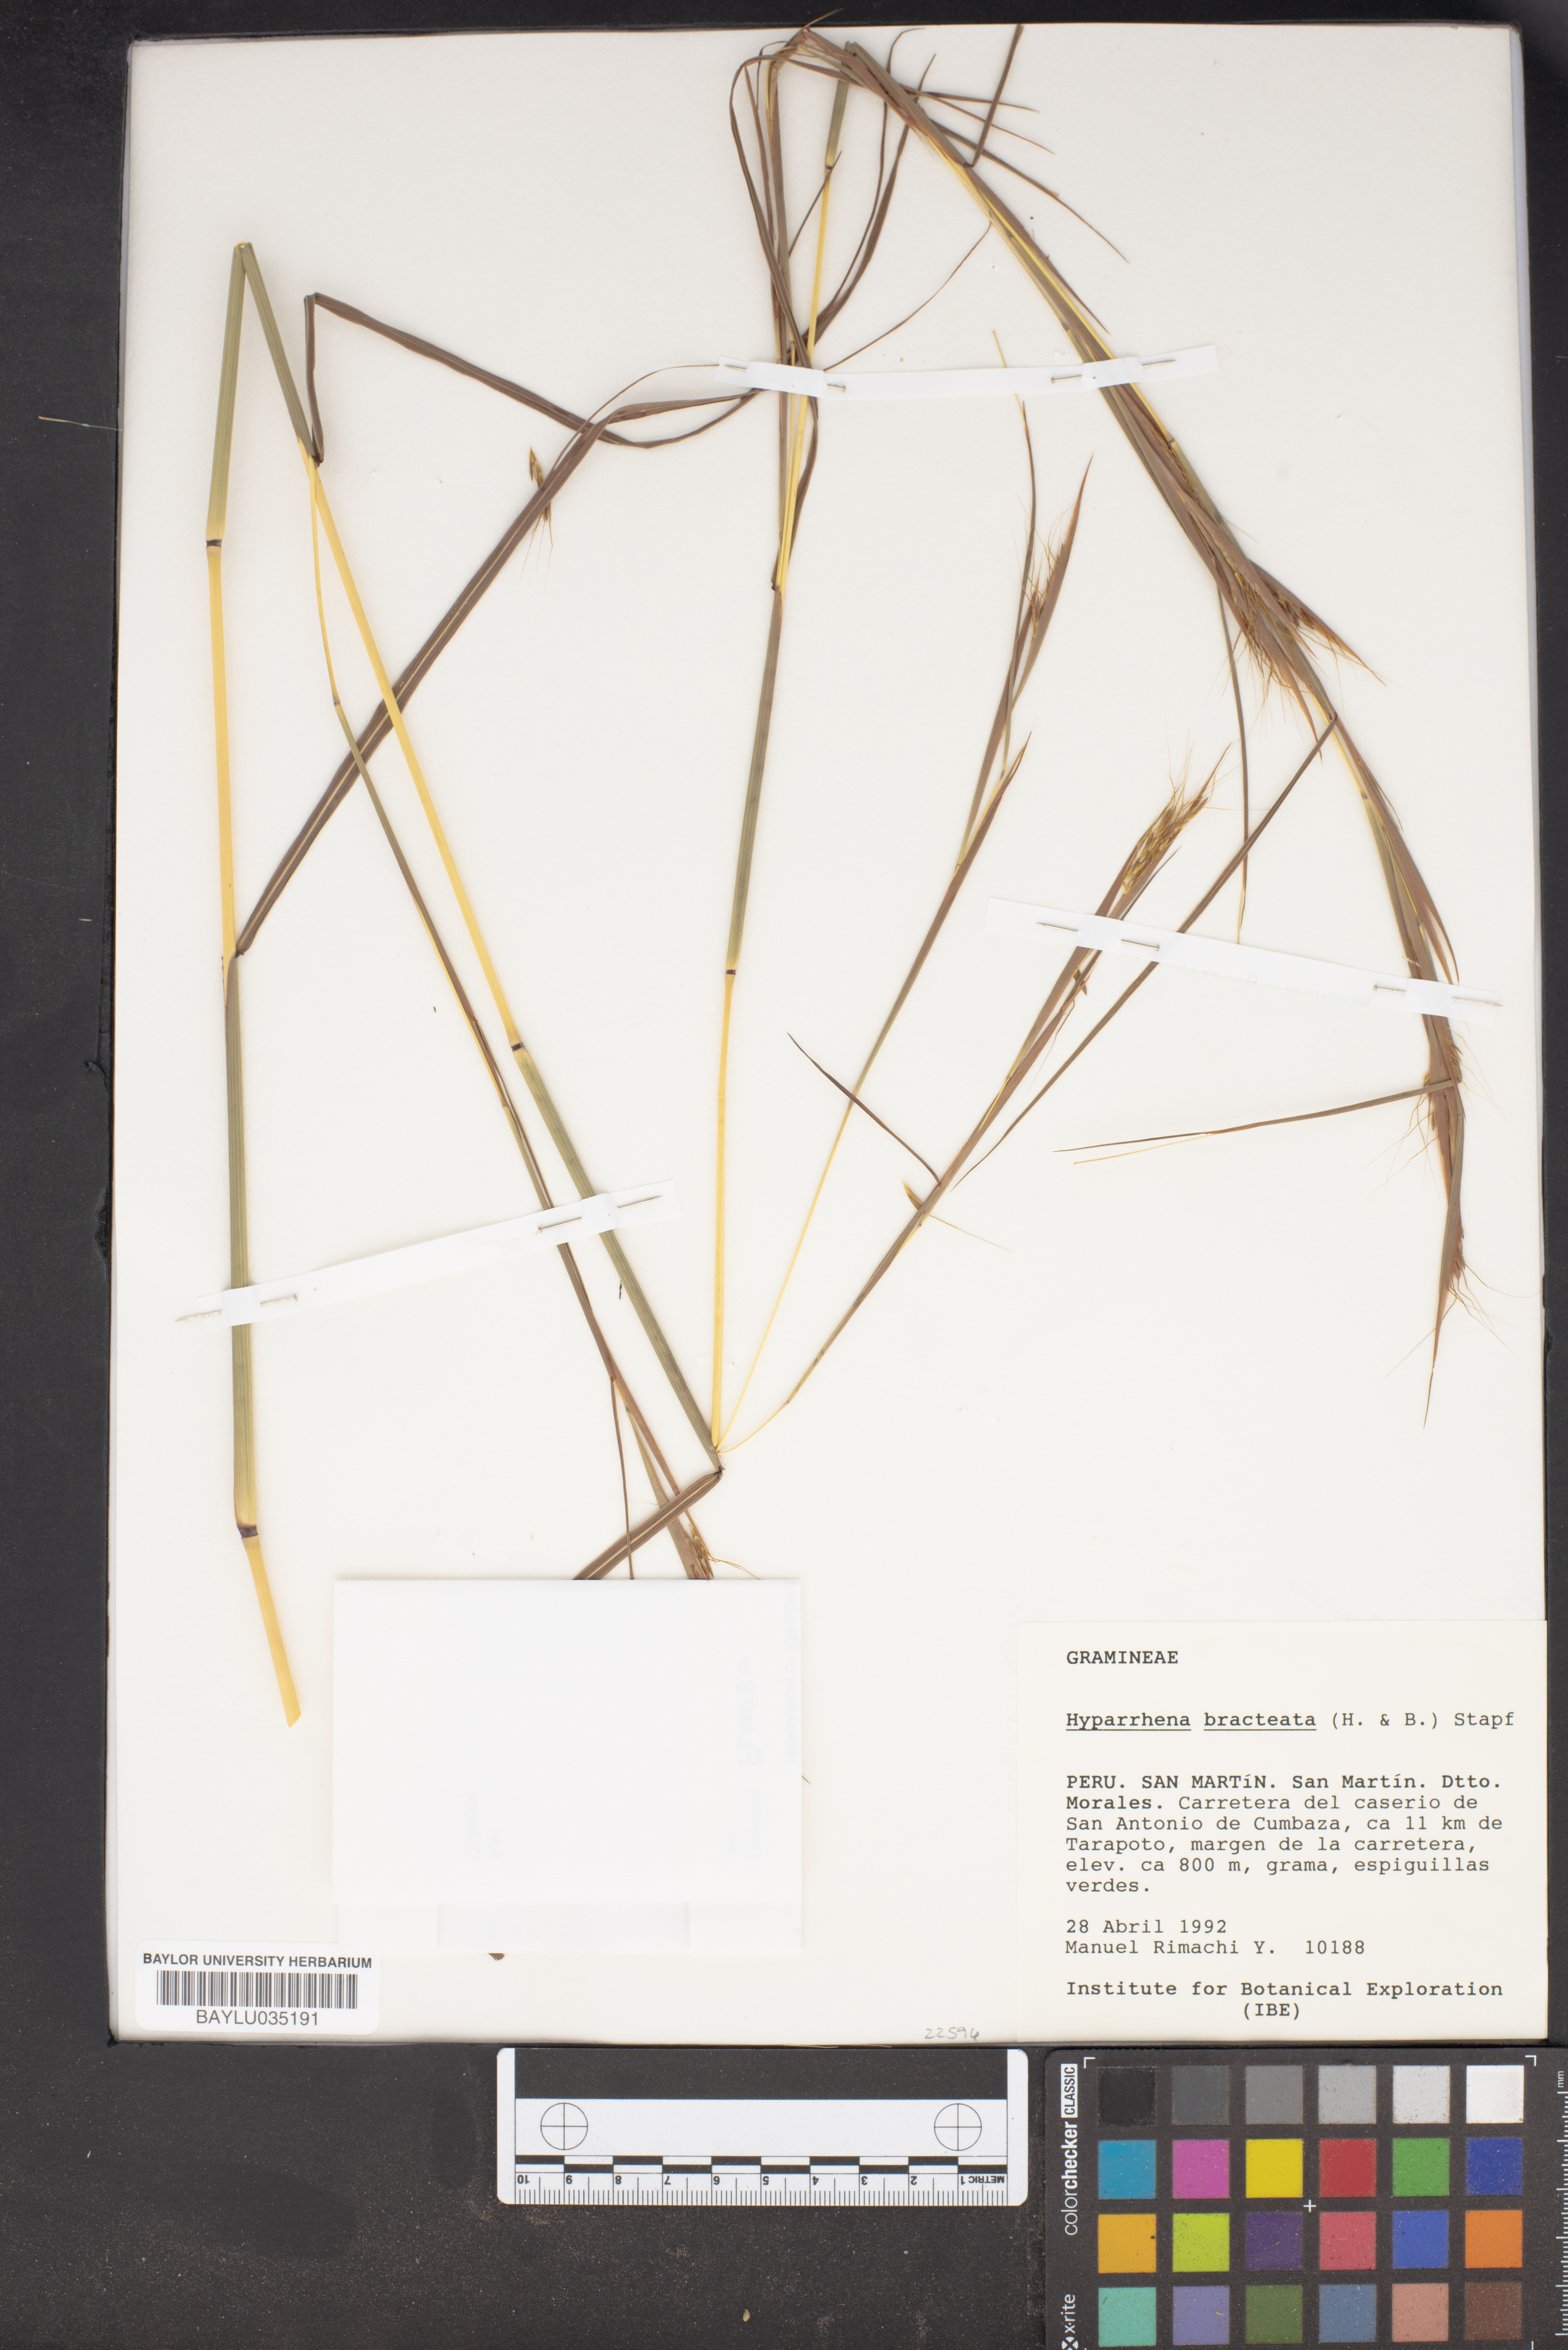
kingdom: Plantae
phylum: Tracheophyta
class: Liliopsida
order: Poales
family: Poaceae
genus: Hyparrhenia
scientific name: Hyparrhenia bracteata
